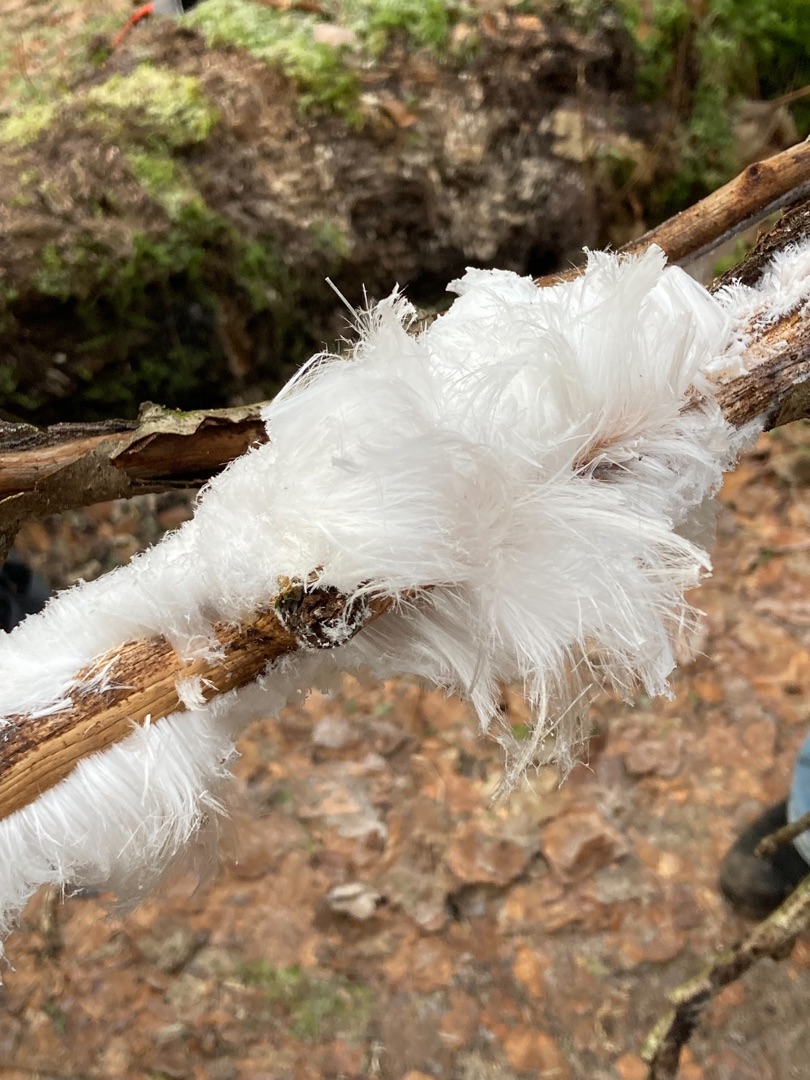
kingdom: Fungi
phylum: Basidiomycota
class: Tremellomycetes
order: Tremellales
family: Exidiaceae
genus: Exidiopsis
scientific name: Exidiopsis effusa
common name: Smuk bævrehinde
